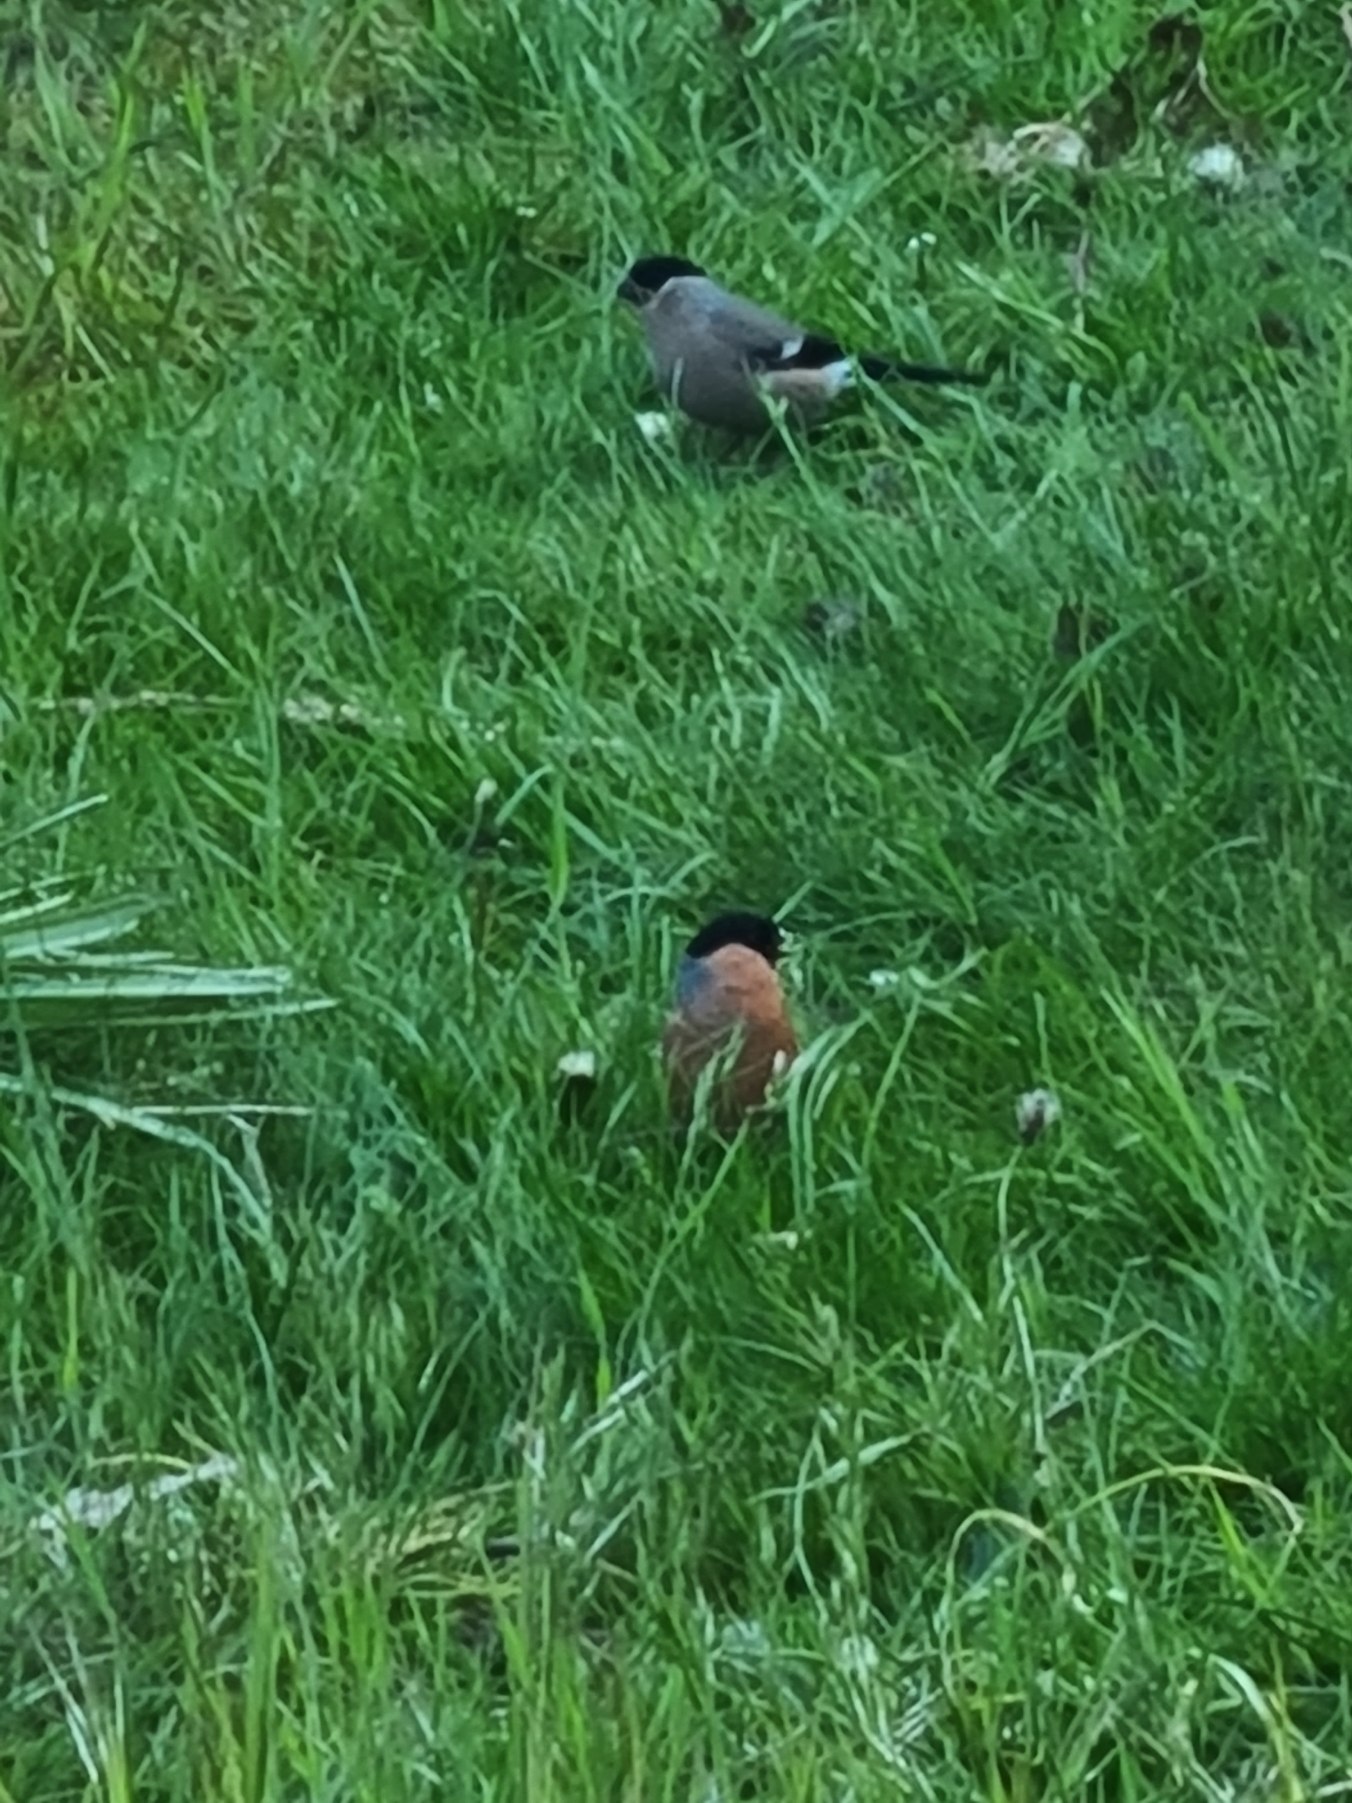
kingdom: Animalia
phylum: Chordata
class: Aves
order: Passeriformes
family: Fringillidae
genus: Pyrrhula
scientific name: Pyrrhula pyrrhula
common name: Dompap
